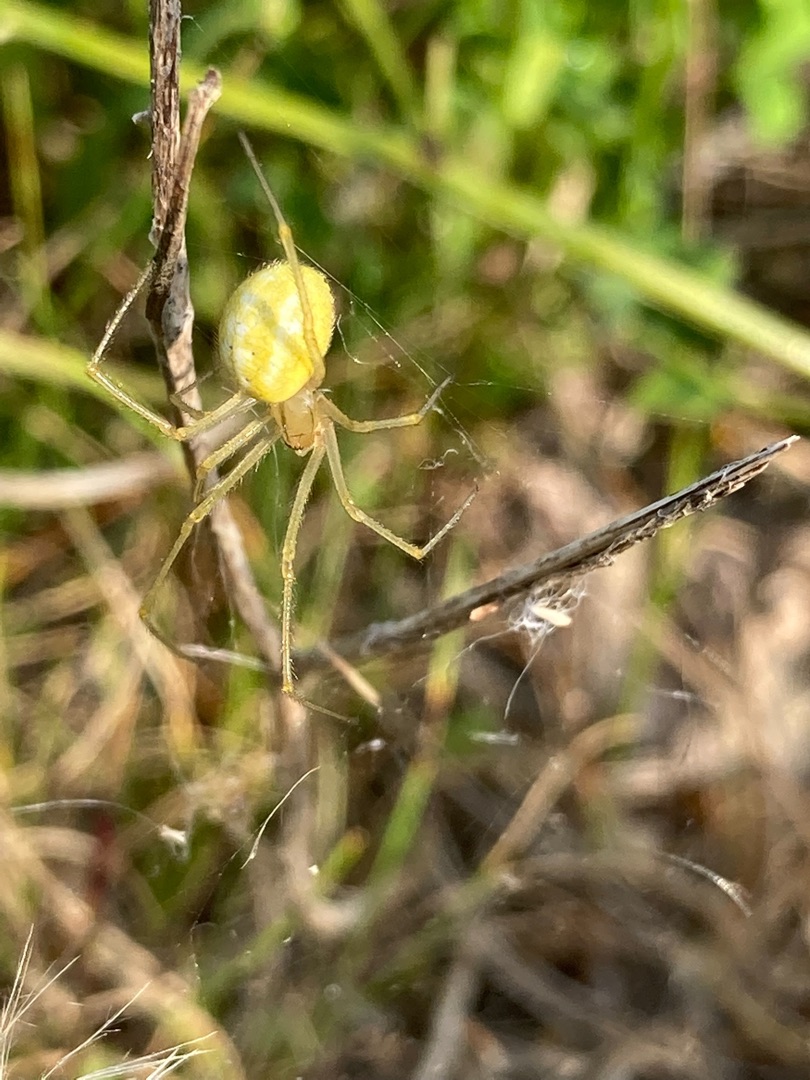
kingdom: Animalia
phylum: Arthropoda
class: Arachnida
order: Araneae
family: Theridiidae
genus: Enoplognatha
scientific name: Enoplognatha
